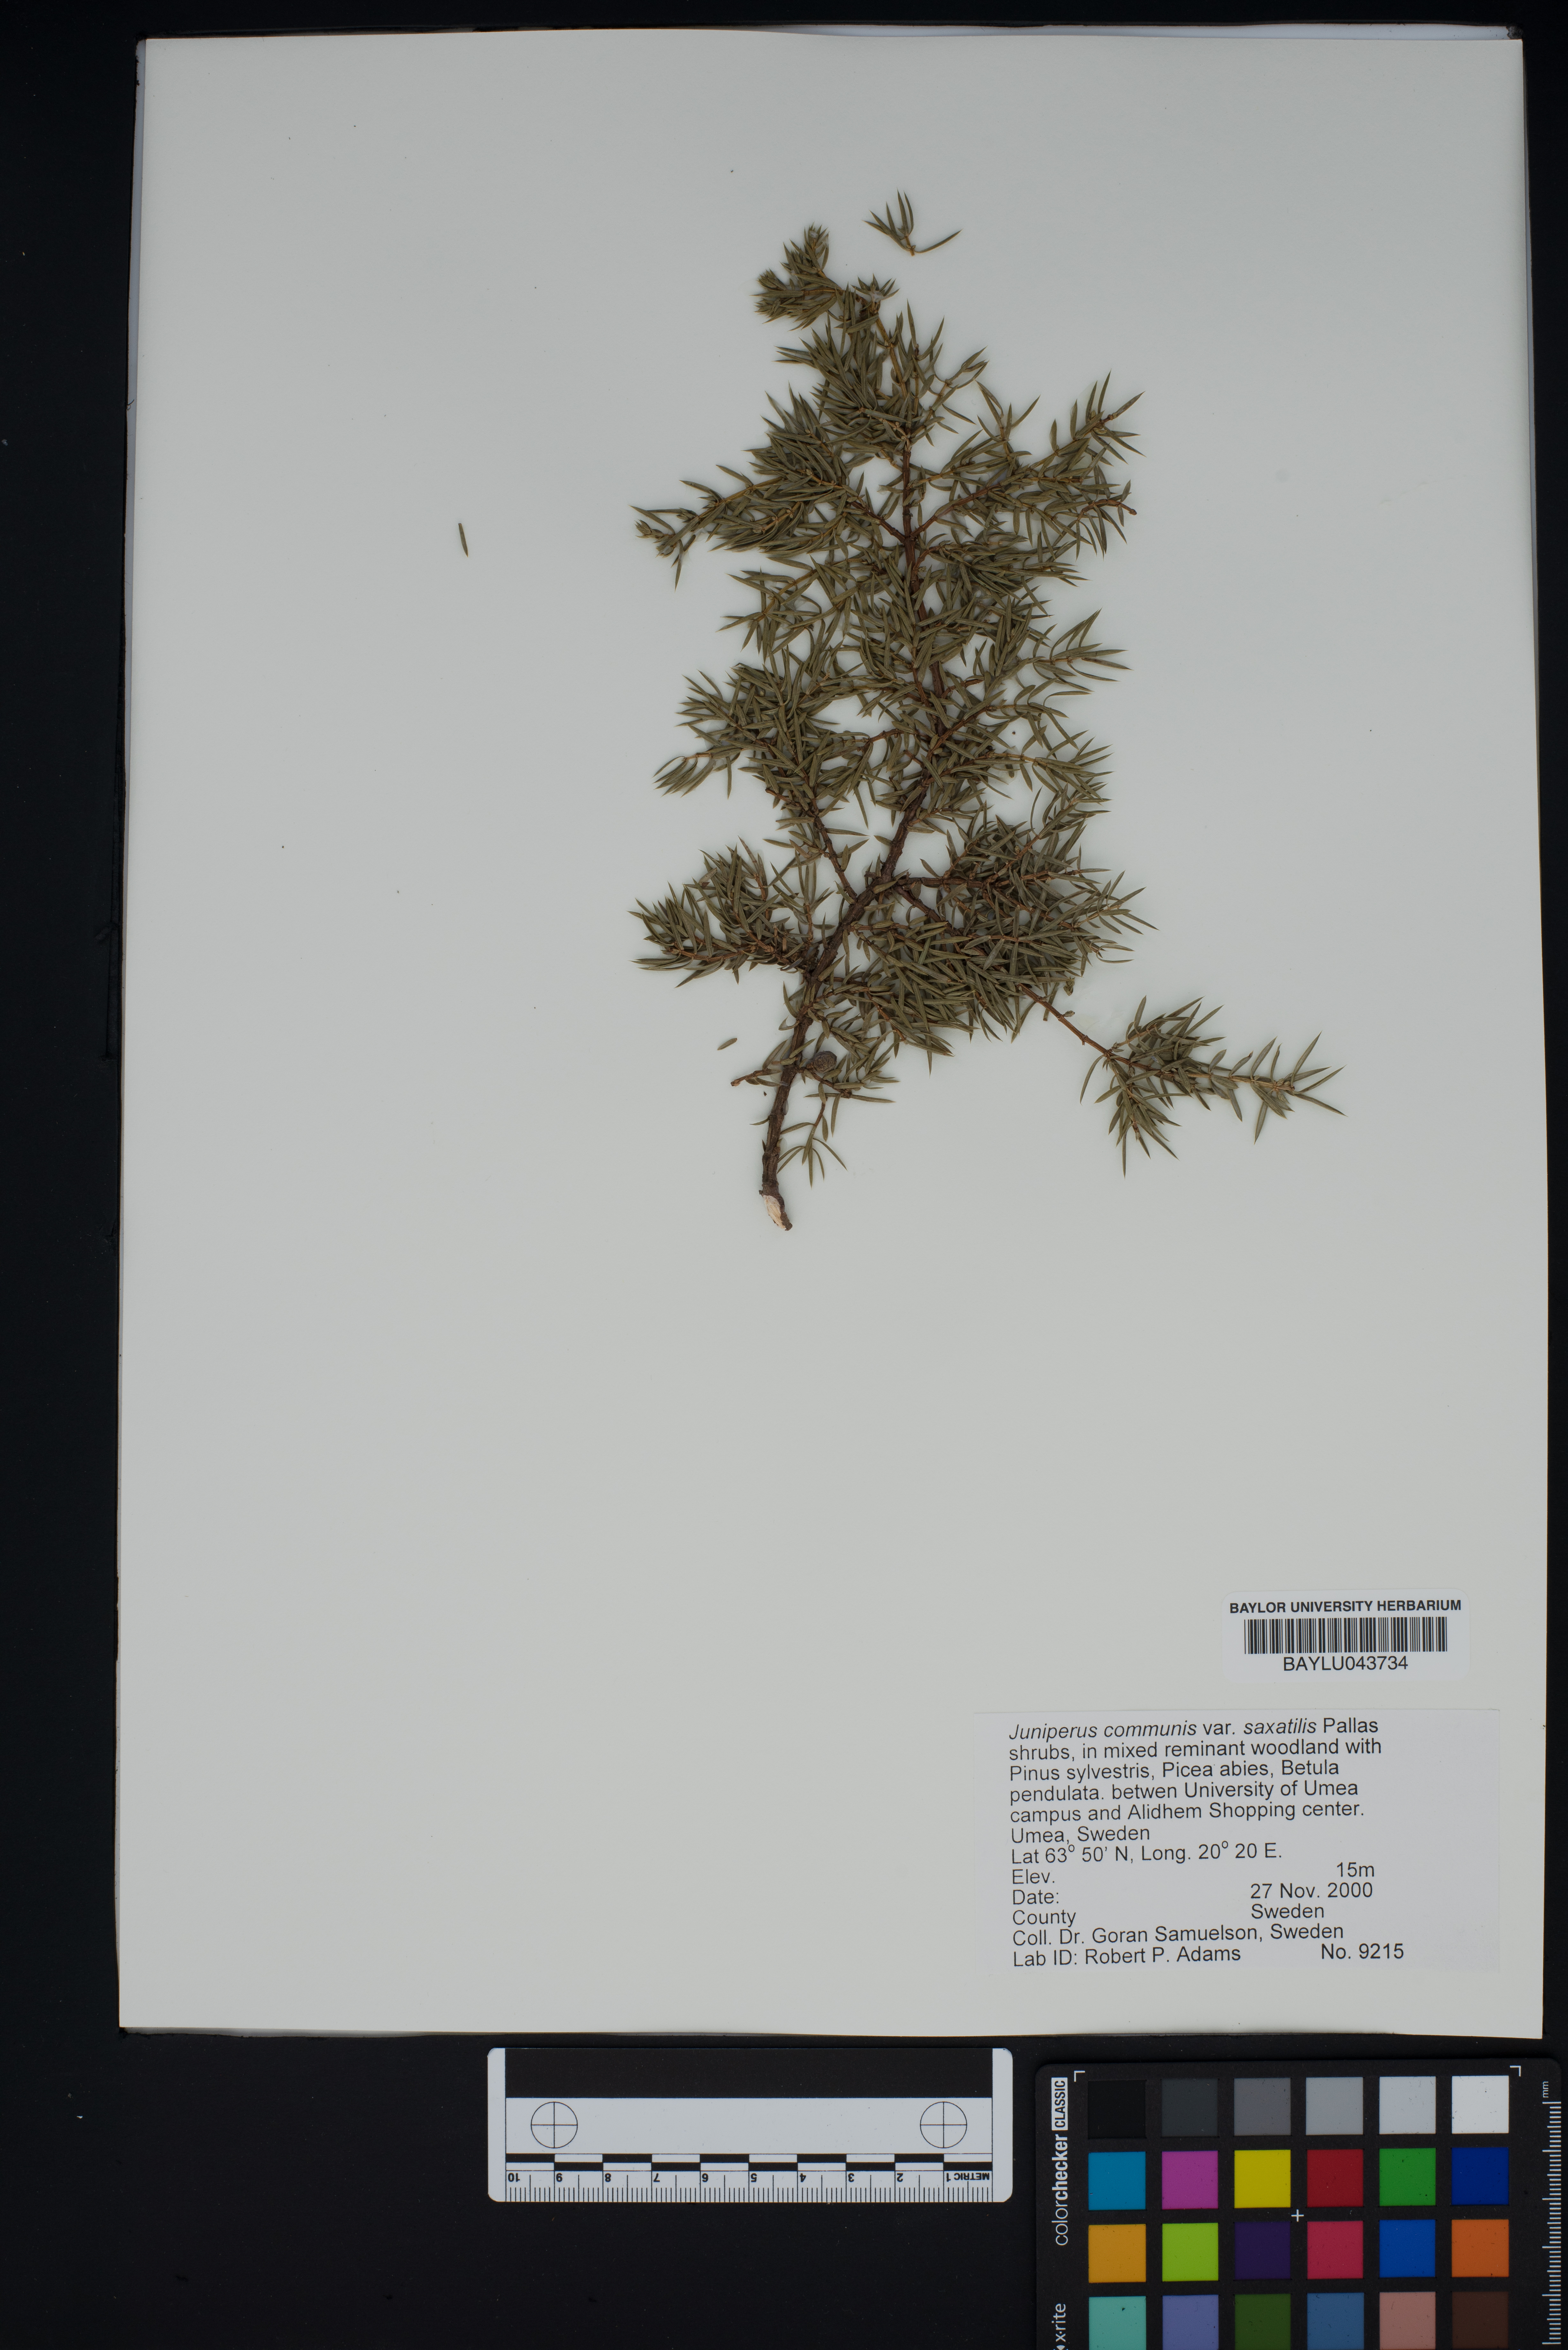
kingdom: Plantae
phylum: Tracheophyta
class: Pinopsida
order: Pinales
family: Cupressaceae
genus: Juniperus
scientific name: Juniperus communis
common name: Common juniper
